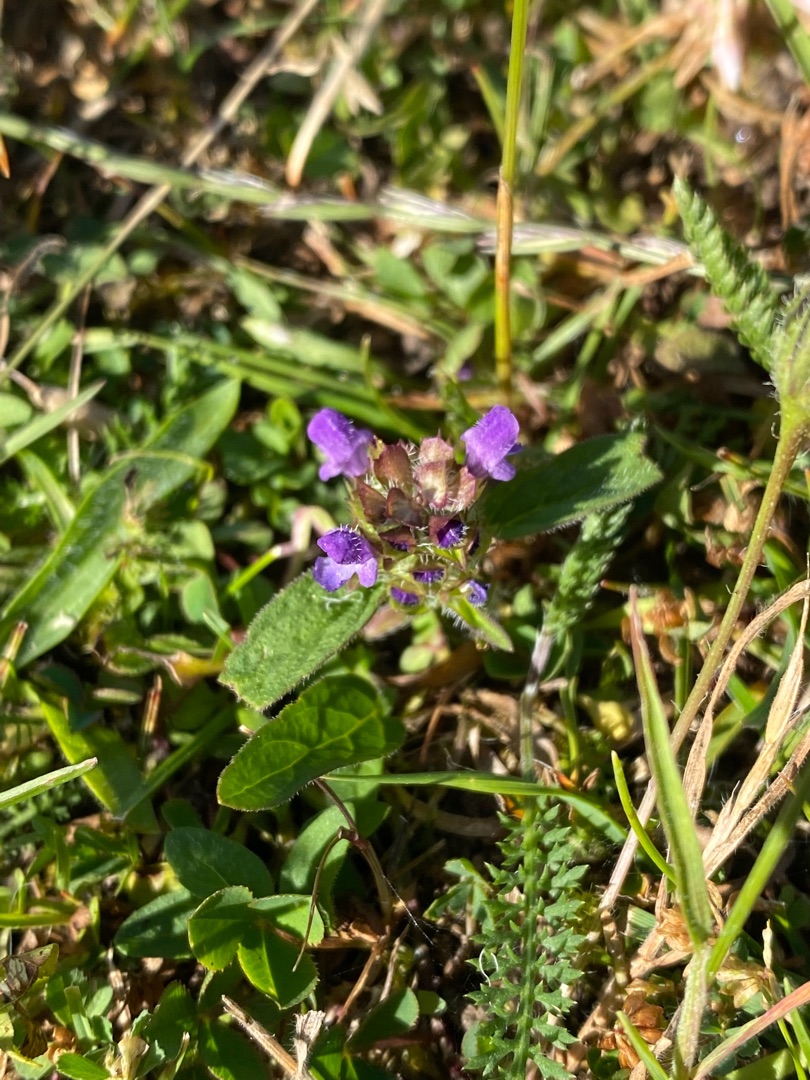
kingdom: Plantae
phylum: Tracheophyta
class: Magnoliopsida
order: Lamiales
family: Lamiaceae
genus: Prunella
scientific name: Prunella vulgaris
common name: Almindelig brunelle
